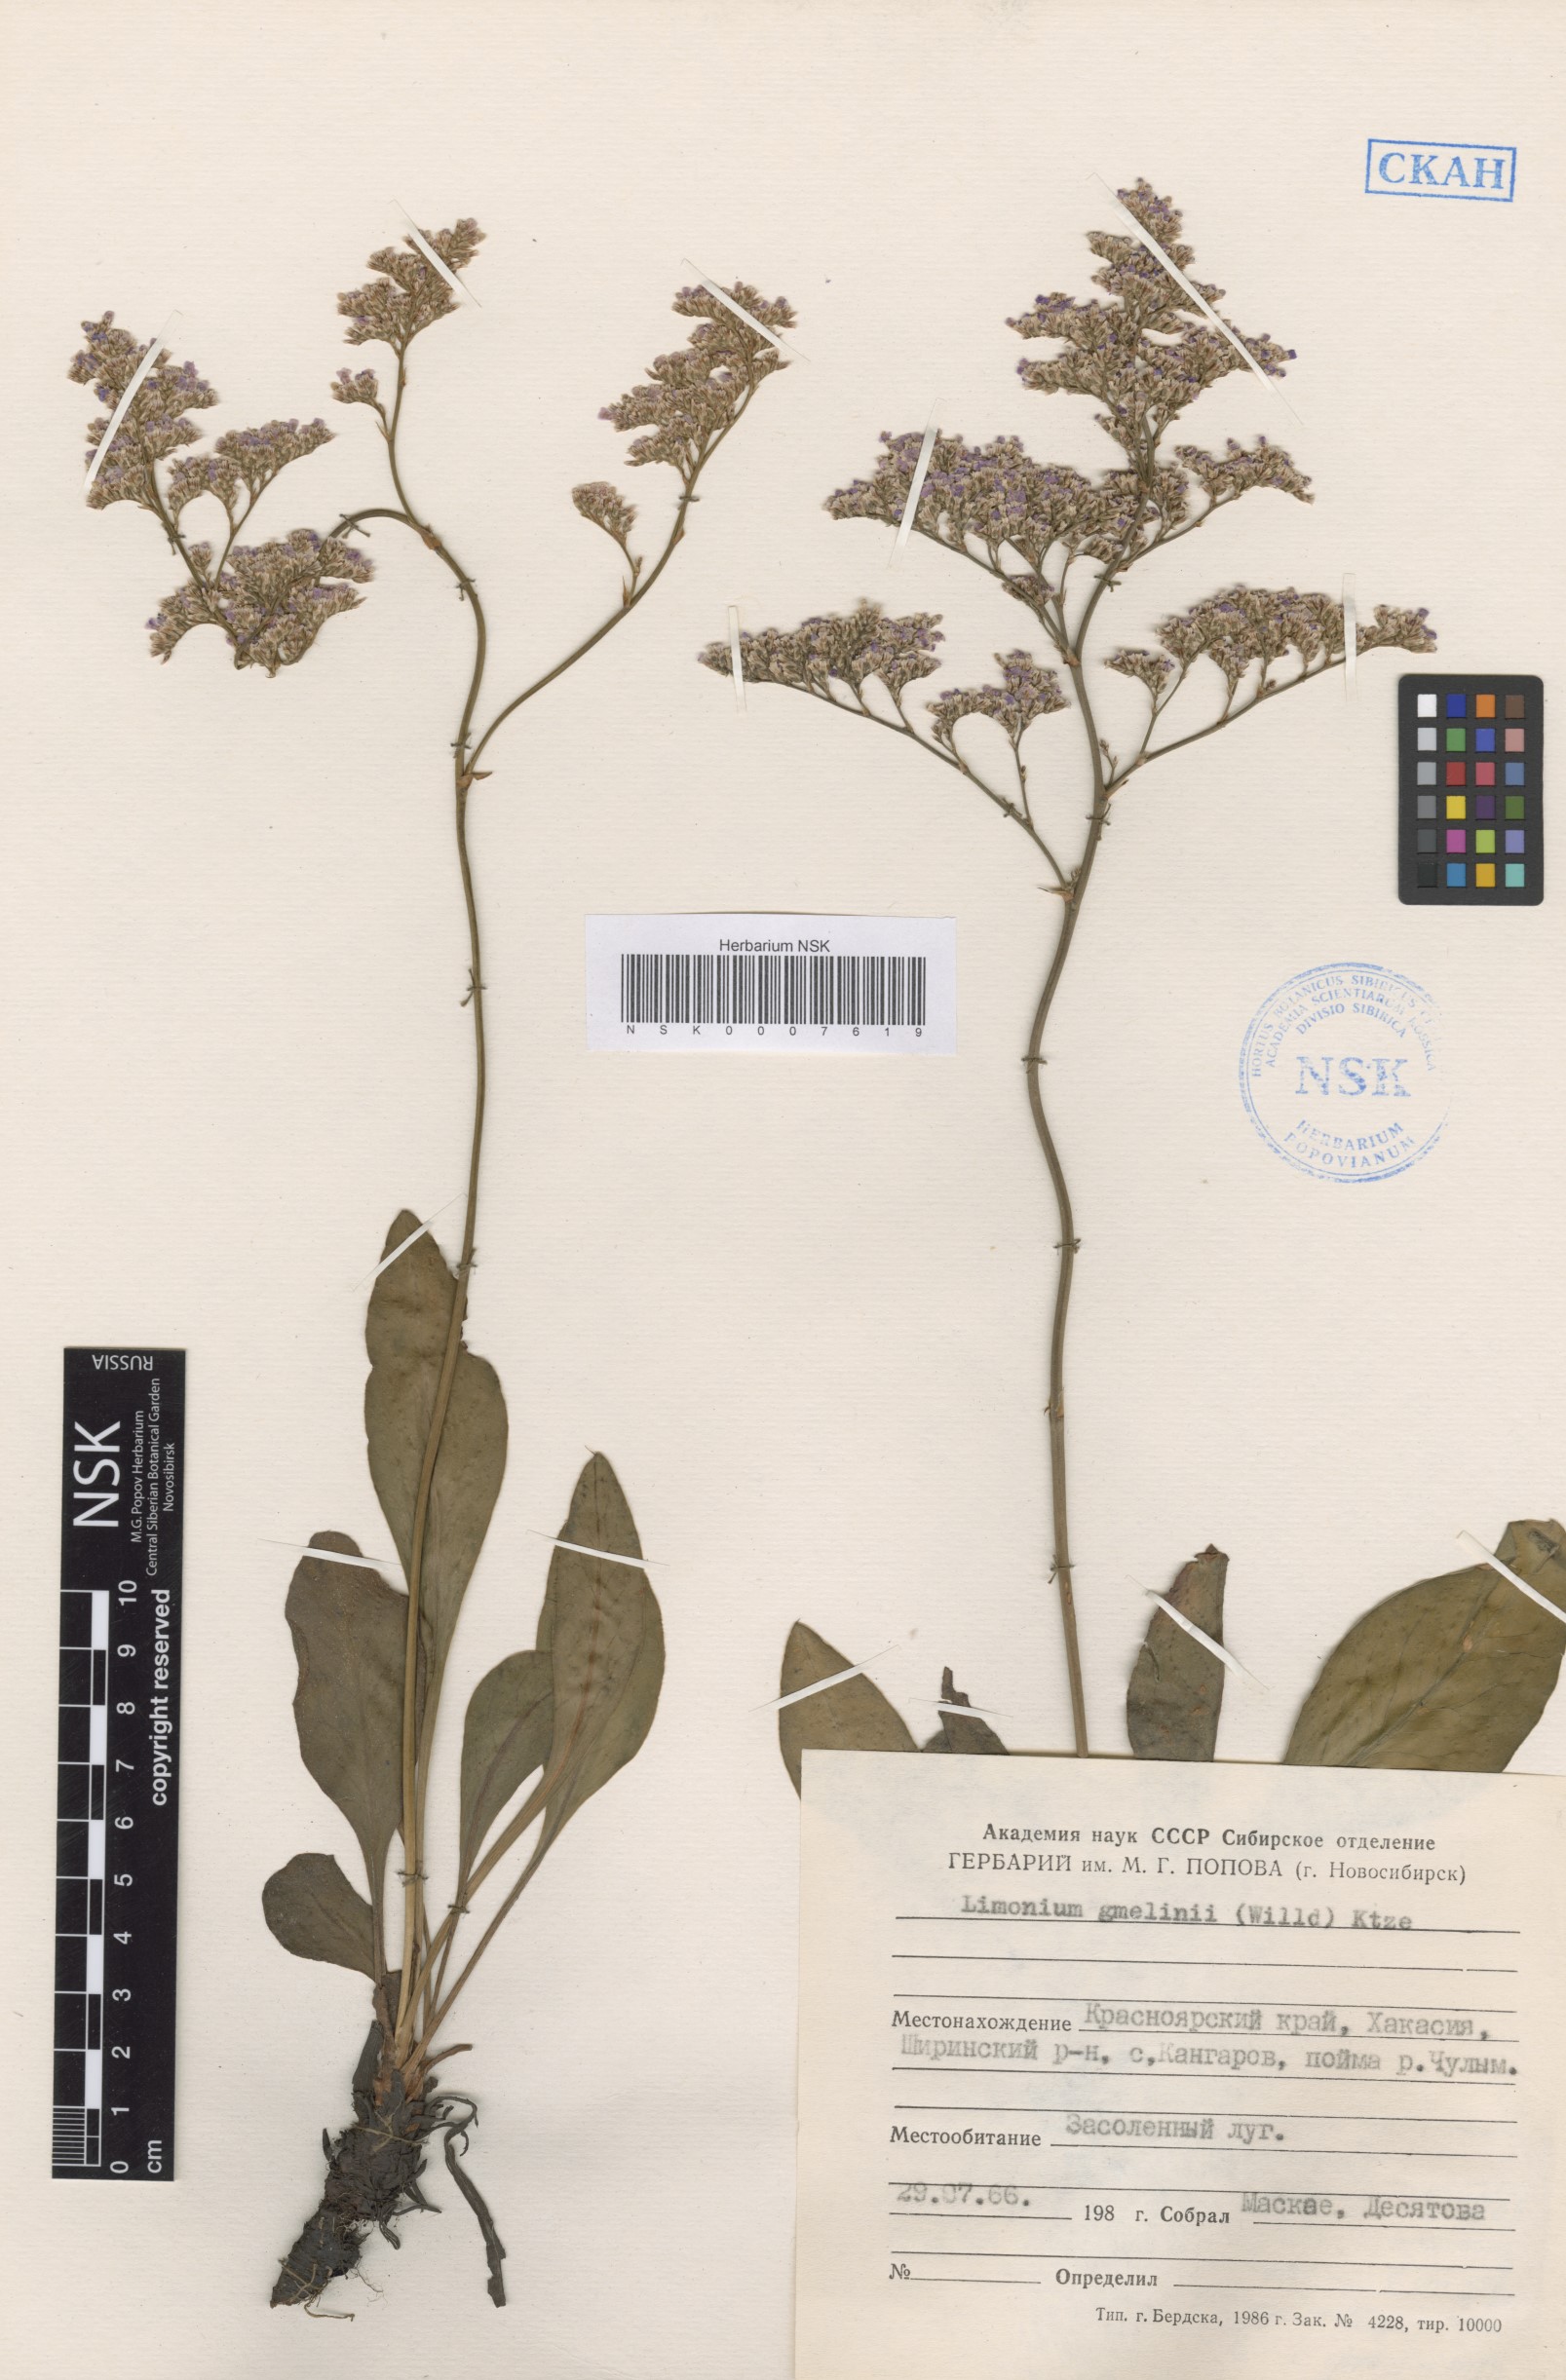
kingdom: Plantae
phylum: Tracheophyta
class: Magnoliopsida
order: Caryophyllales
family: Plumbaginaceae
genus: Limonium
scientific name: Limonium gmelini
